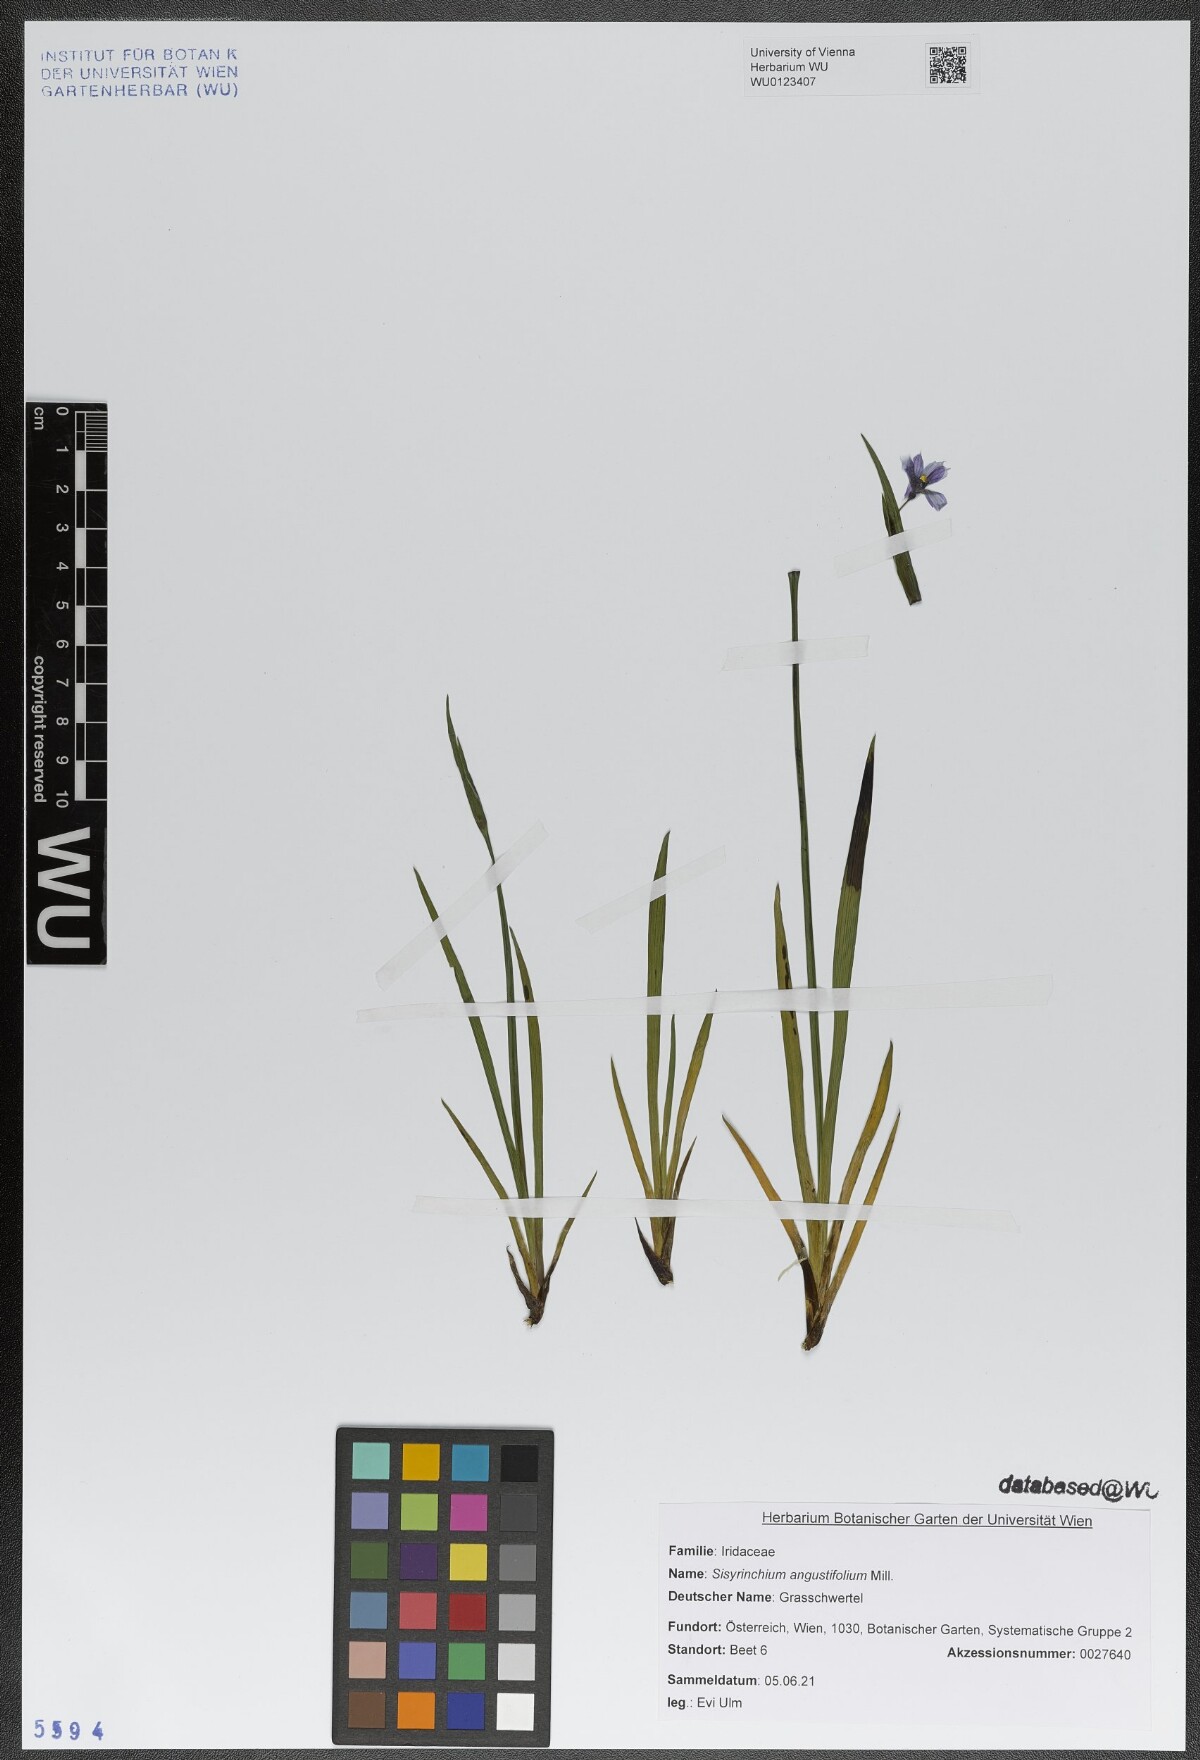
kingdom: Plantae
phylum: Tracheophyta
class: Liliopsida
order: Asparagales
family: Iridaceae
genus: Sisyrinchium
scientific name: Sisyrinchium angustifolium
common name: Narrow-leaf blue-eyed-grass
